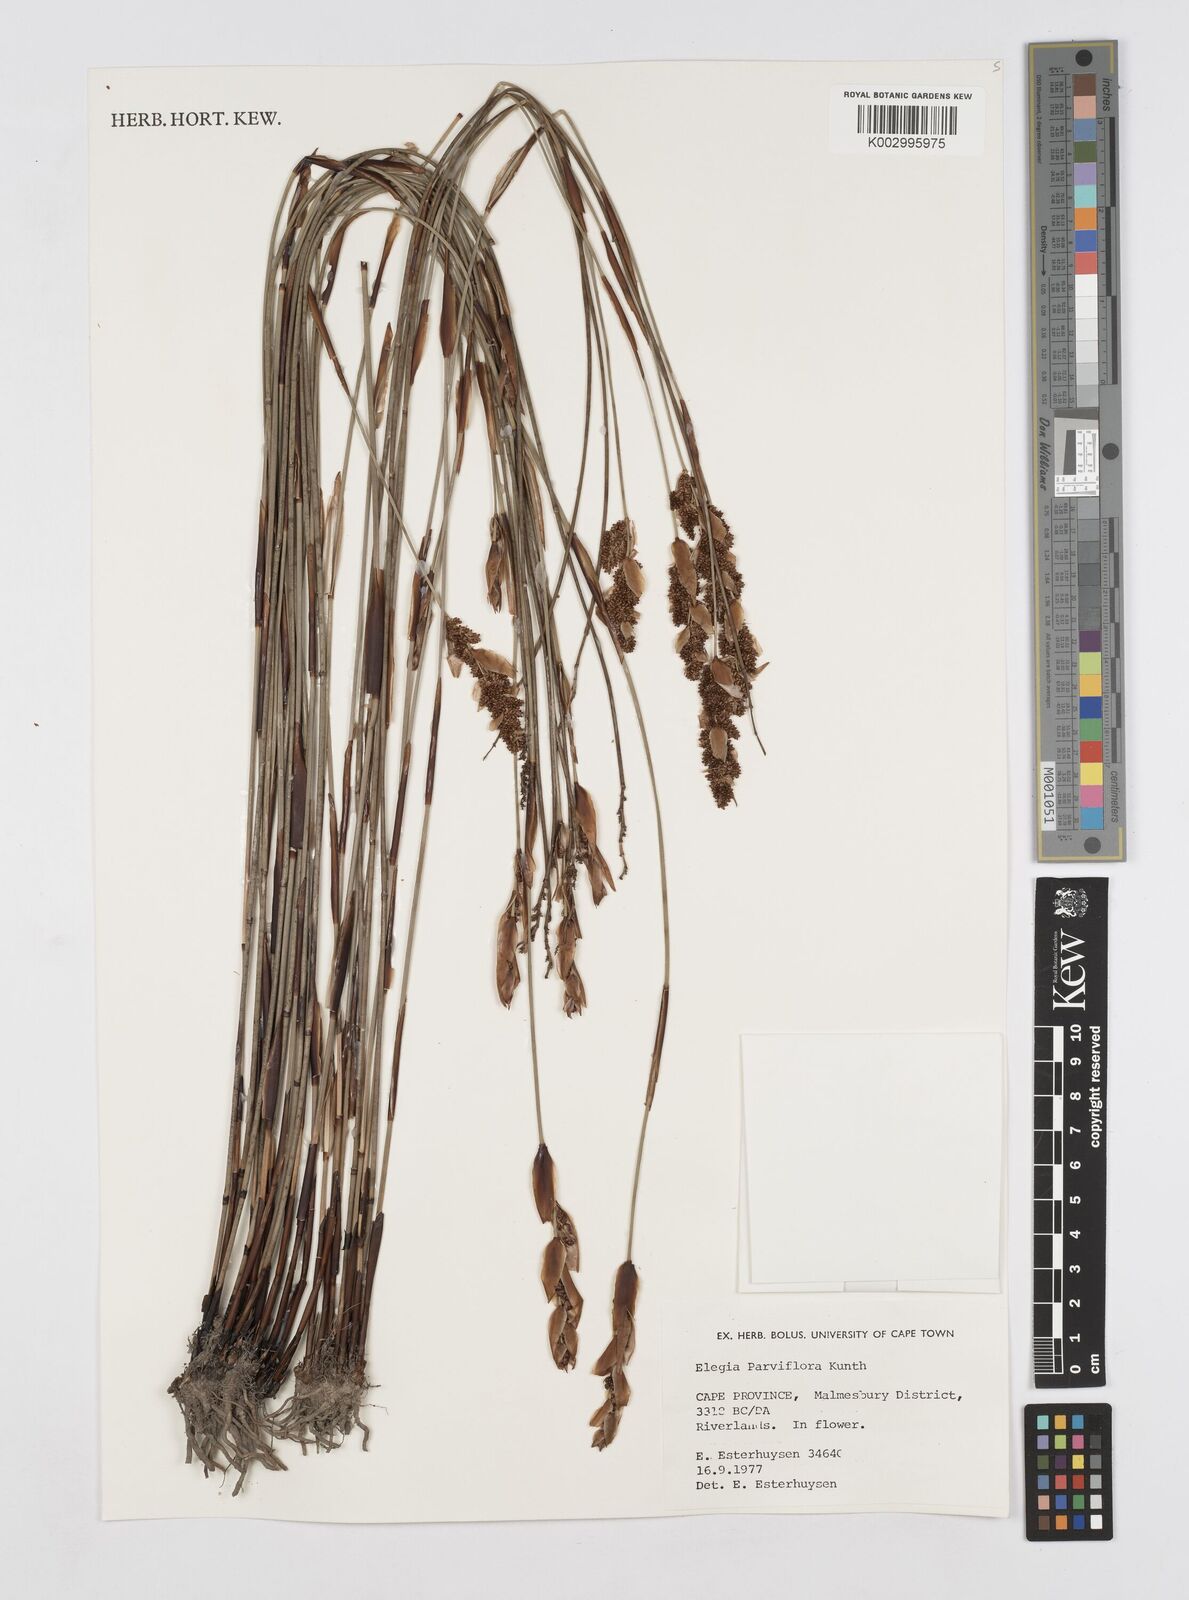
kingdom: Plantae
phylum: Tracheophyta
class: Liliopsida
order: Poales
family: Restionaceae
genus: Cannomois
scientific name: Cannomois parviflora
